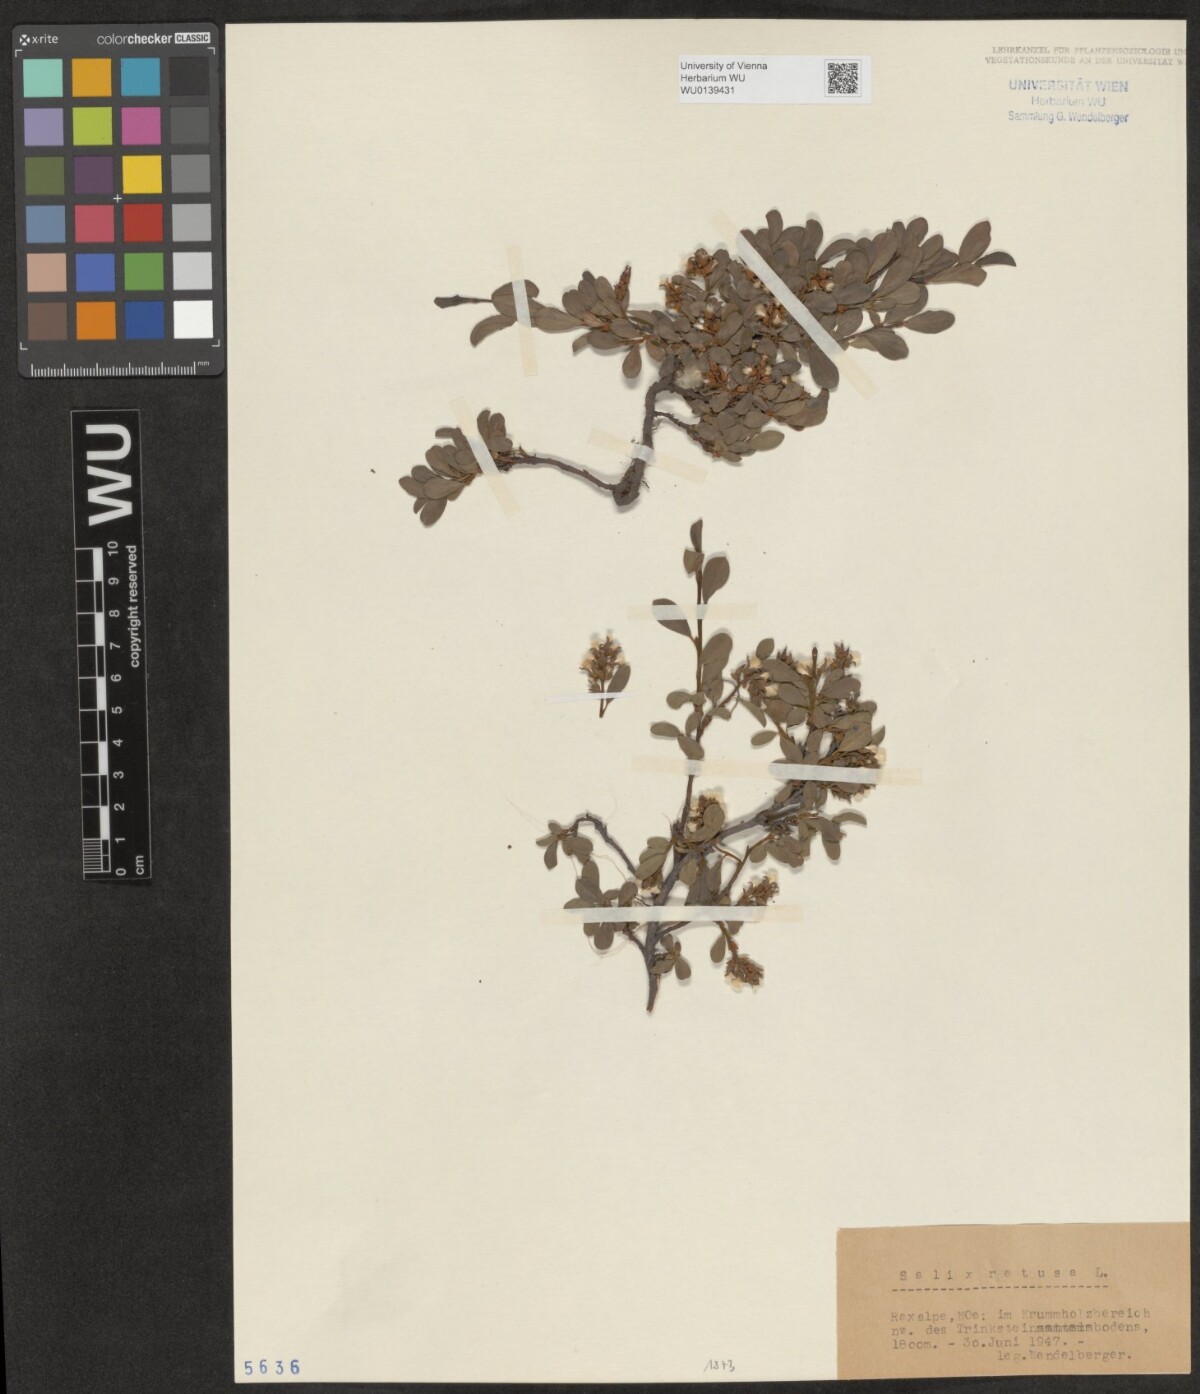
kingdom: Plantae
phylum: Tracheophyta
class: Magnoliopsida
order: Malpighiales
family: Salicaceae
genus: Salix
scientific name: Salix retusa
